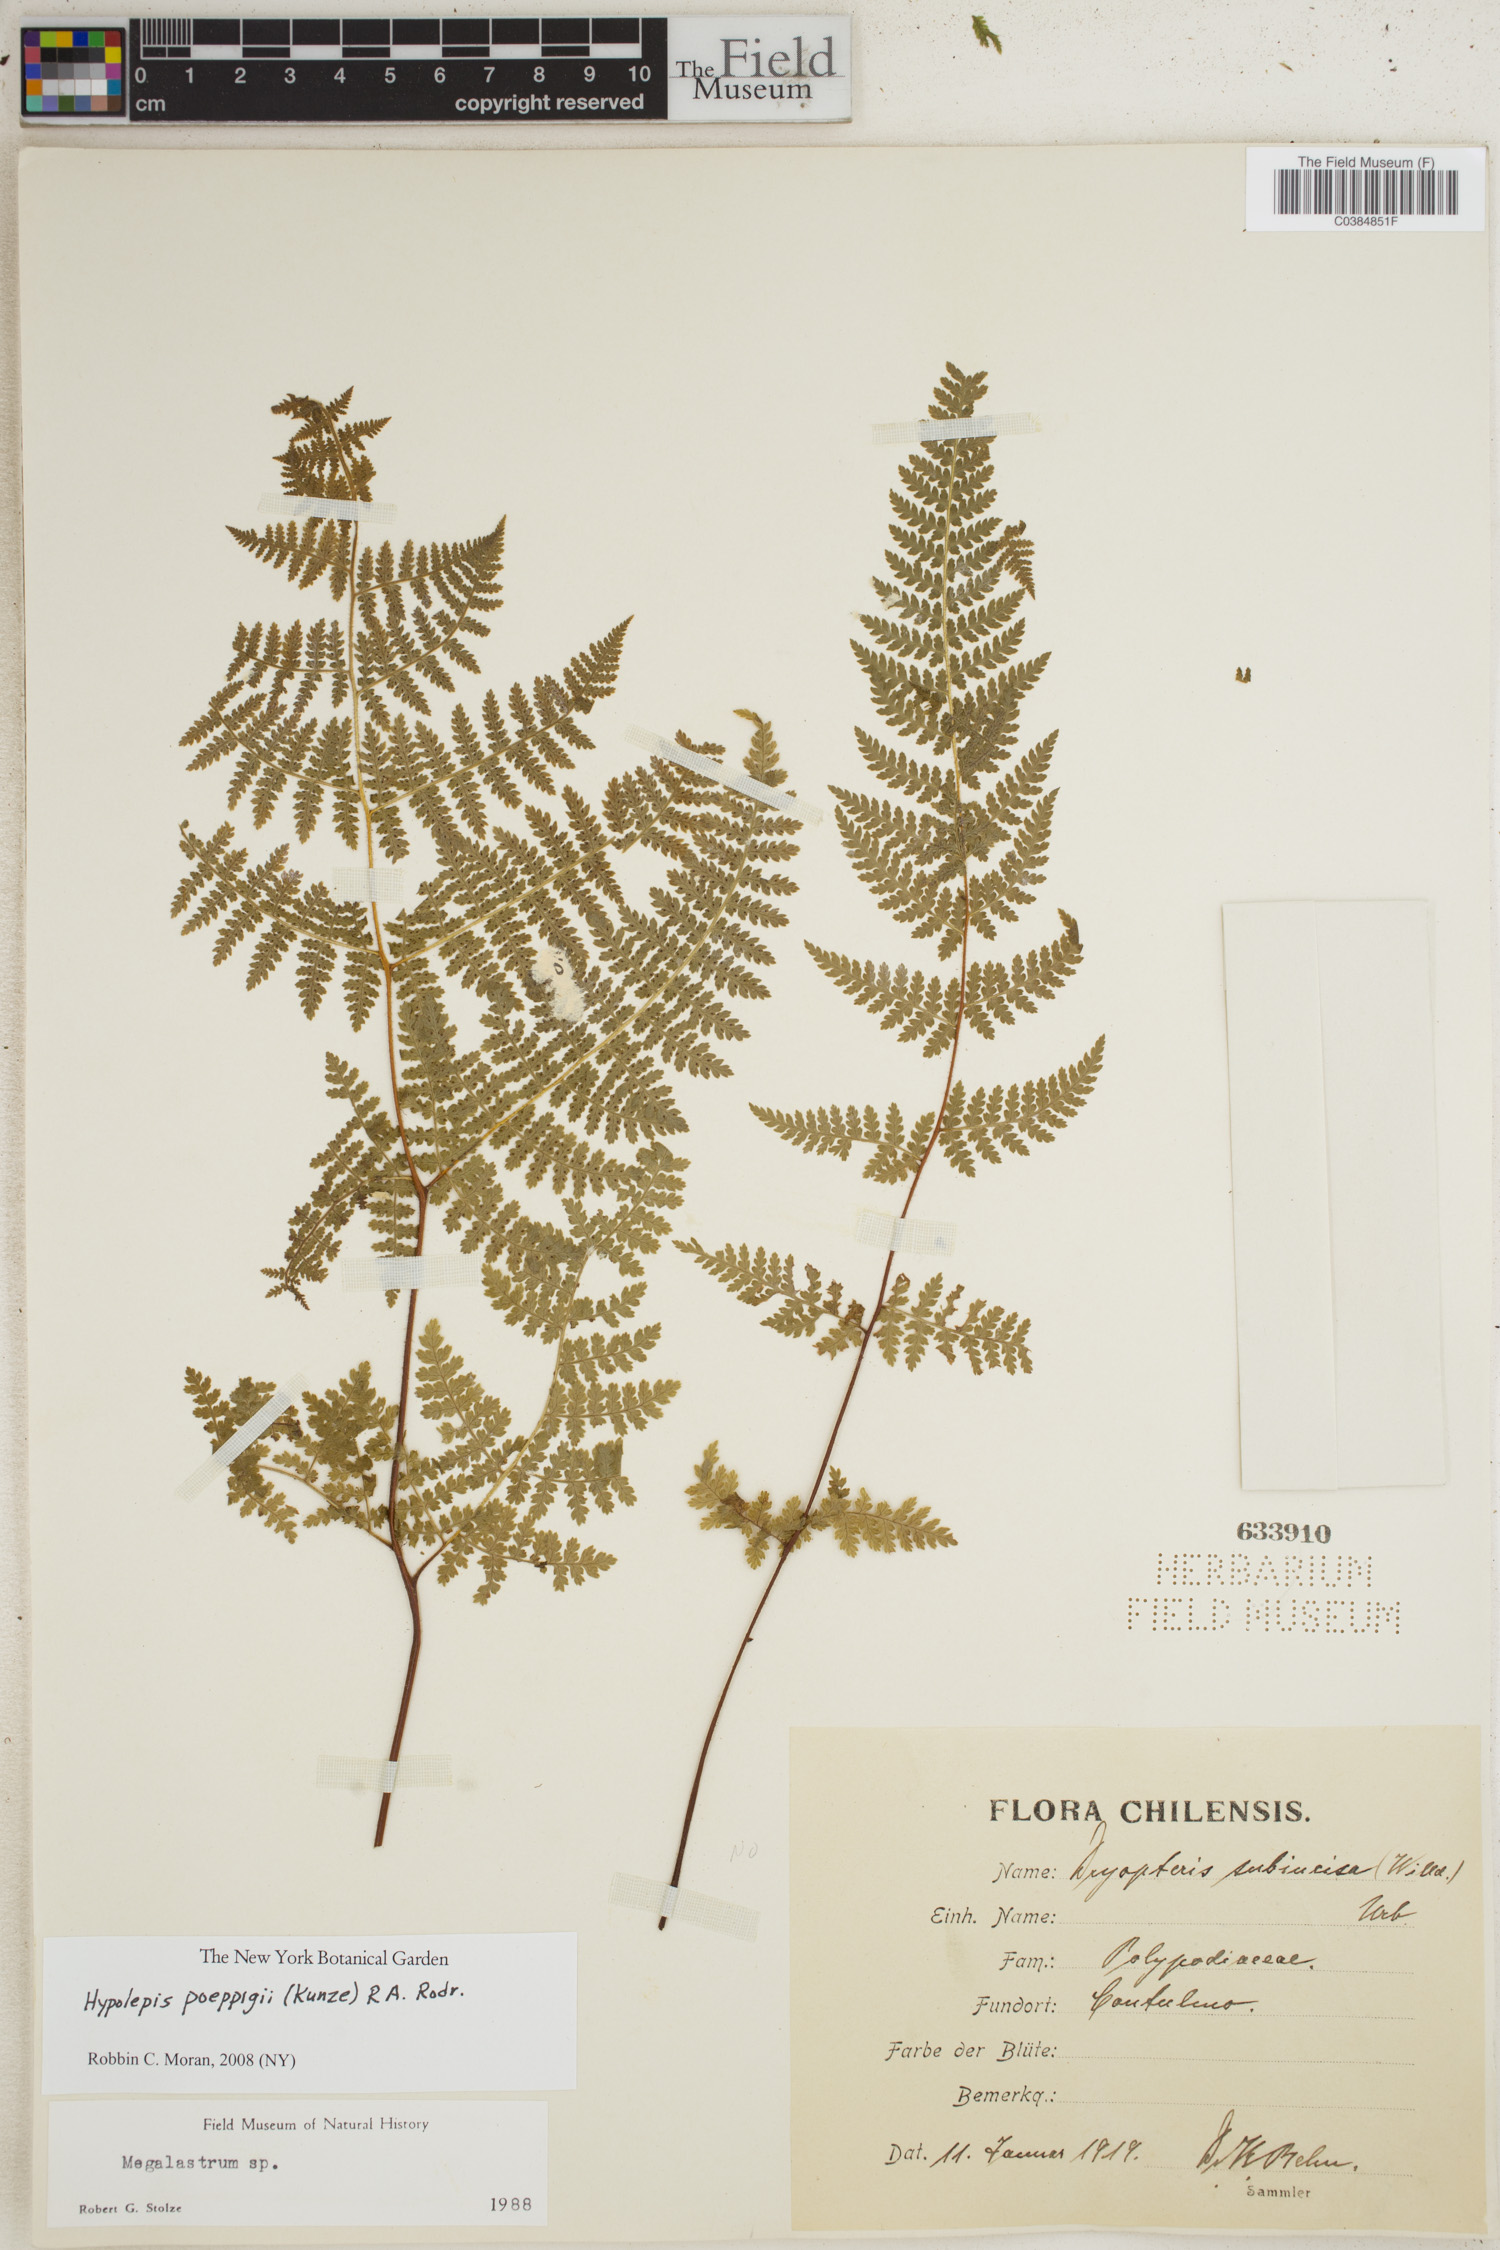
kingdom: Plantae
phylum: Tracheophyta
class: Polypodiopsida
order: Polypodiales
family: Dennstaedtiaceae
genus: Hypolepis
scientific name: Hypolepis poeppigii
